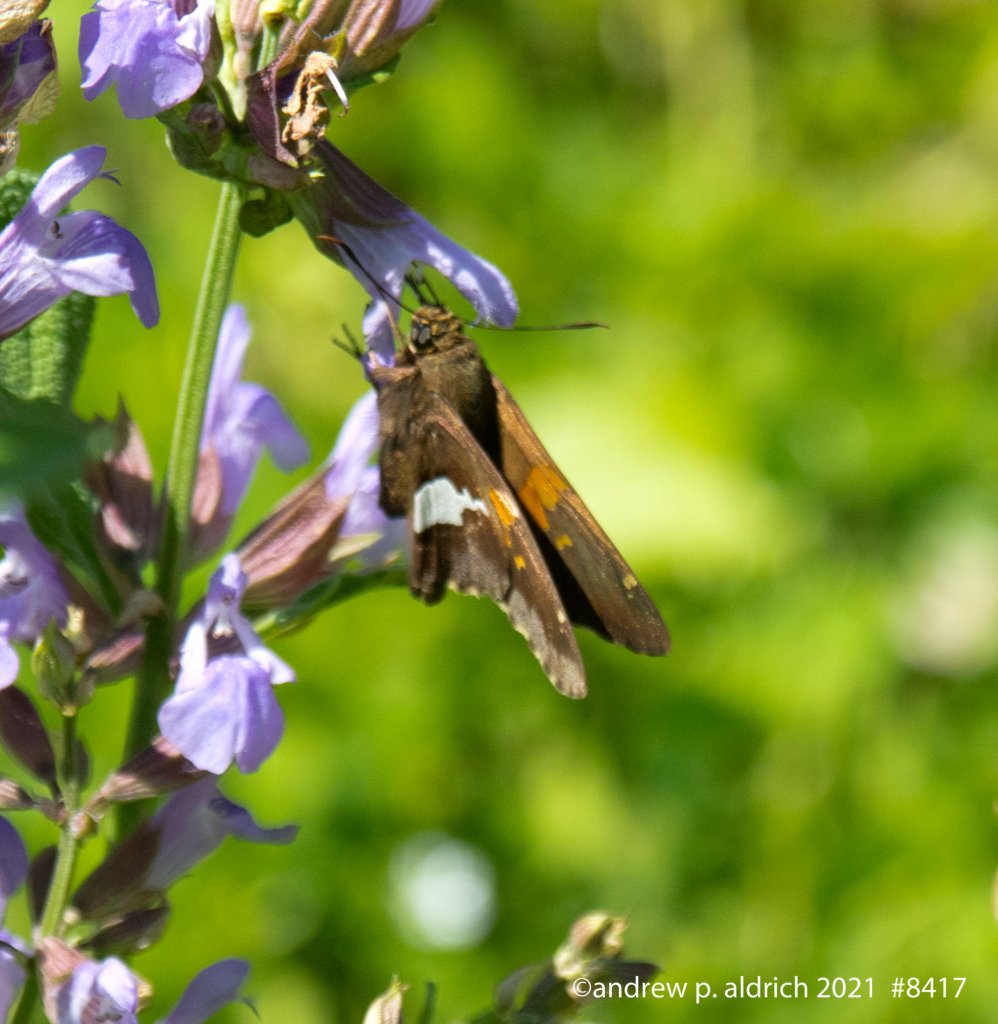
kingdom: Animalia
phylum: Arthropoda
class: Insecta
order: Lepidoptera
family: Hesperiidae
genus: Epargyreus
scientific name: Epargyreus clarus
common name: Silver-spotted Skipper
